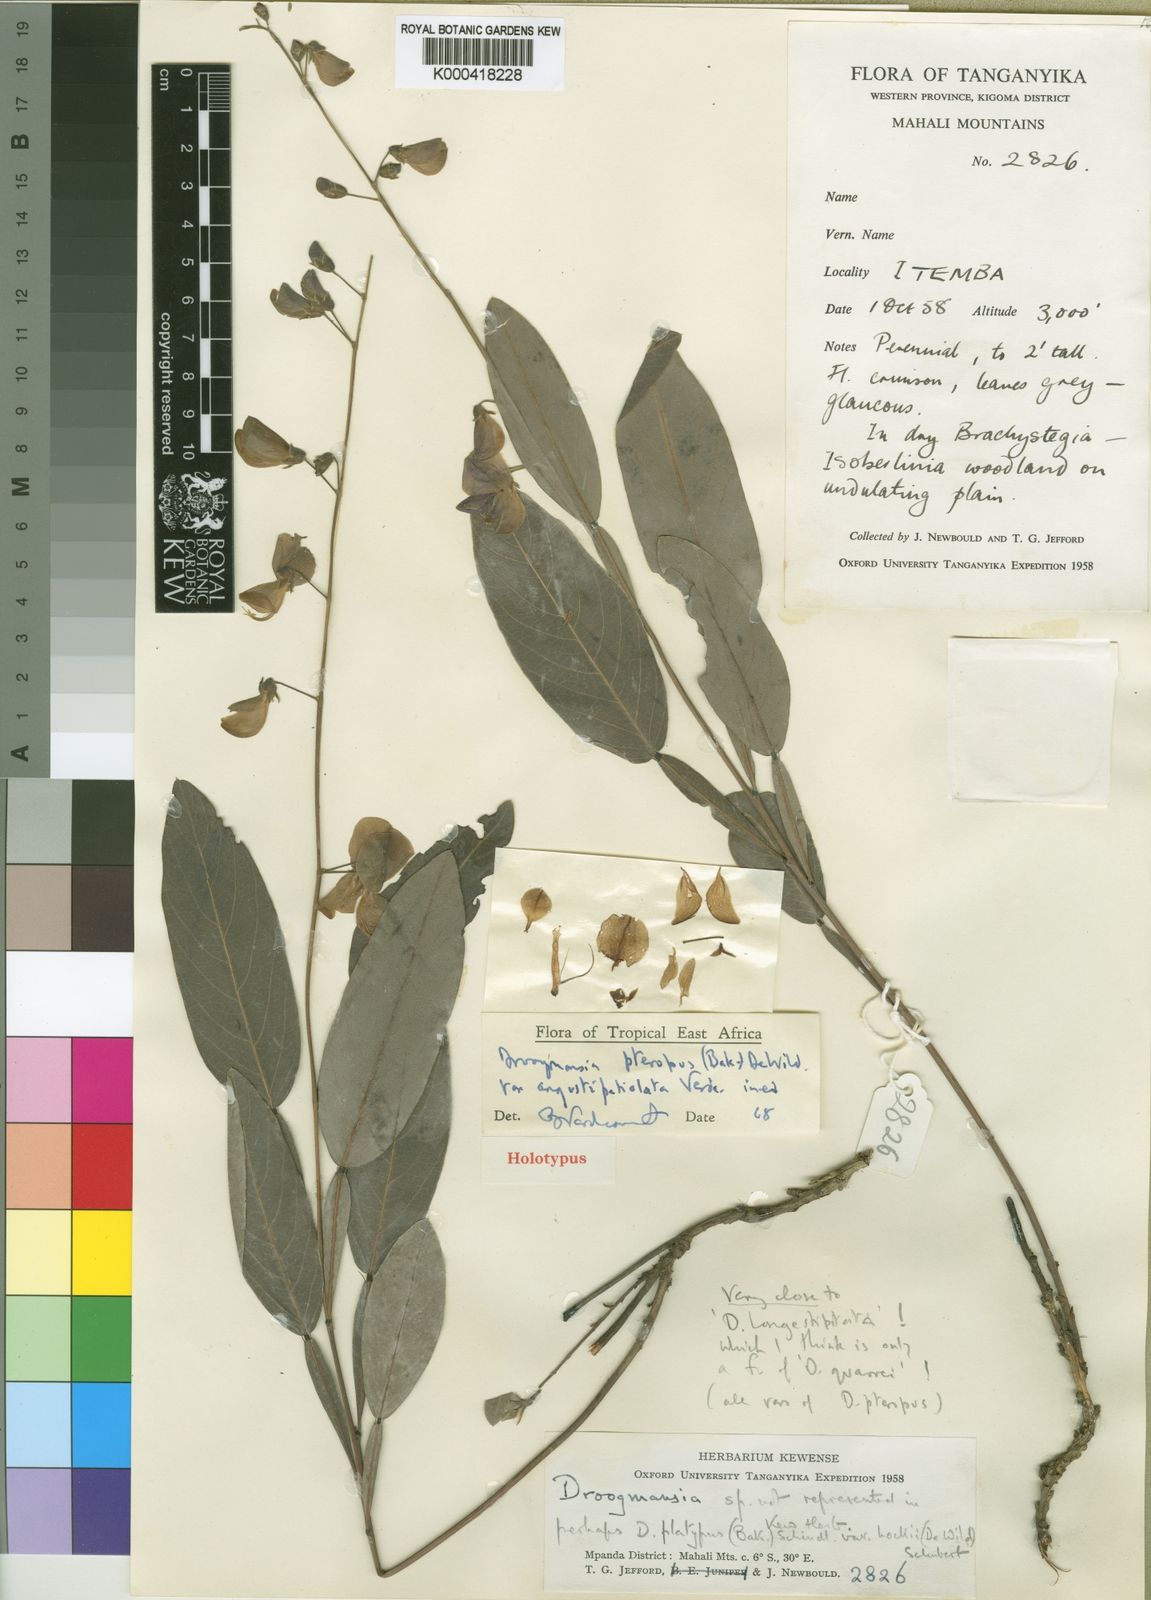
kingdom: Plantae
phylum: Tracheophyta
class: Magnoliopsida
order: Fabales
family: Fabaceae
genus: Droogmansia
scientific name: Droogmansia pteropus
